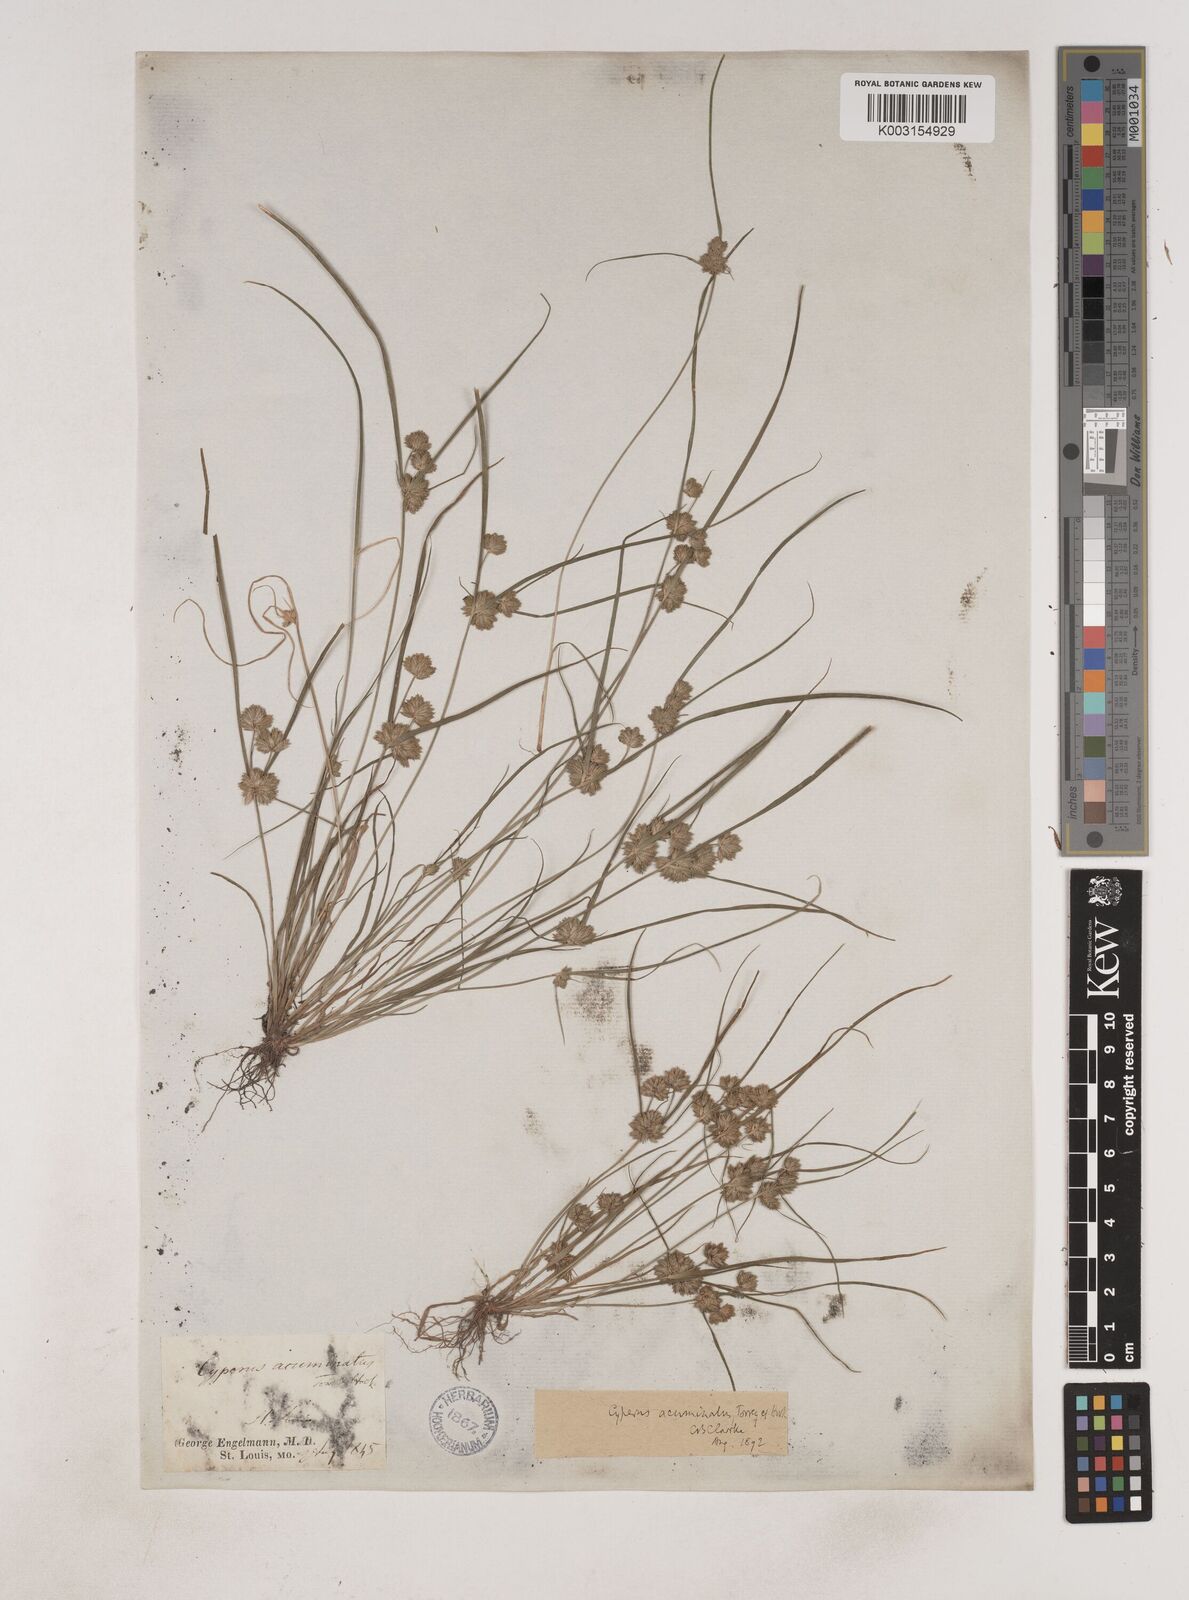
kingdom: Plantae
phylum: Tracheophyta
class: Liliopsida
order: Poales
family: Cyperaceae
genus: Cyperus
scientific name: Cyperus acuminatus
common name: Short-pointed cyperus
